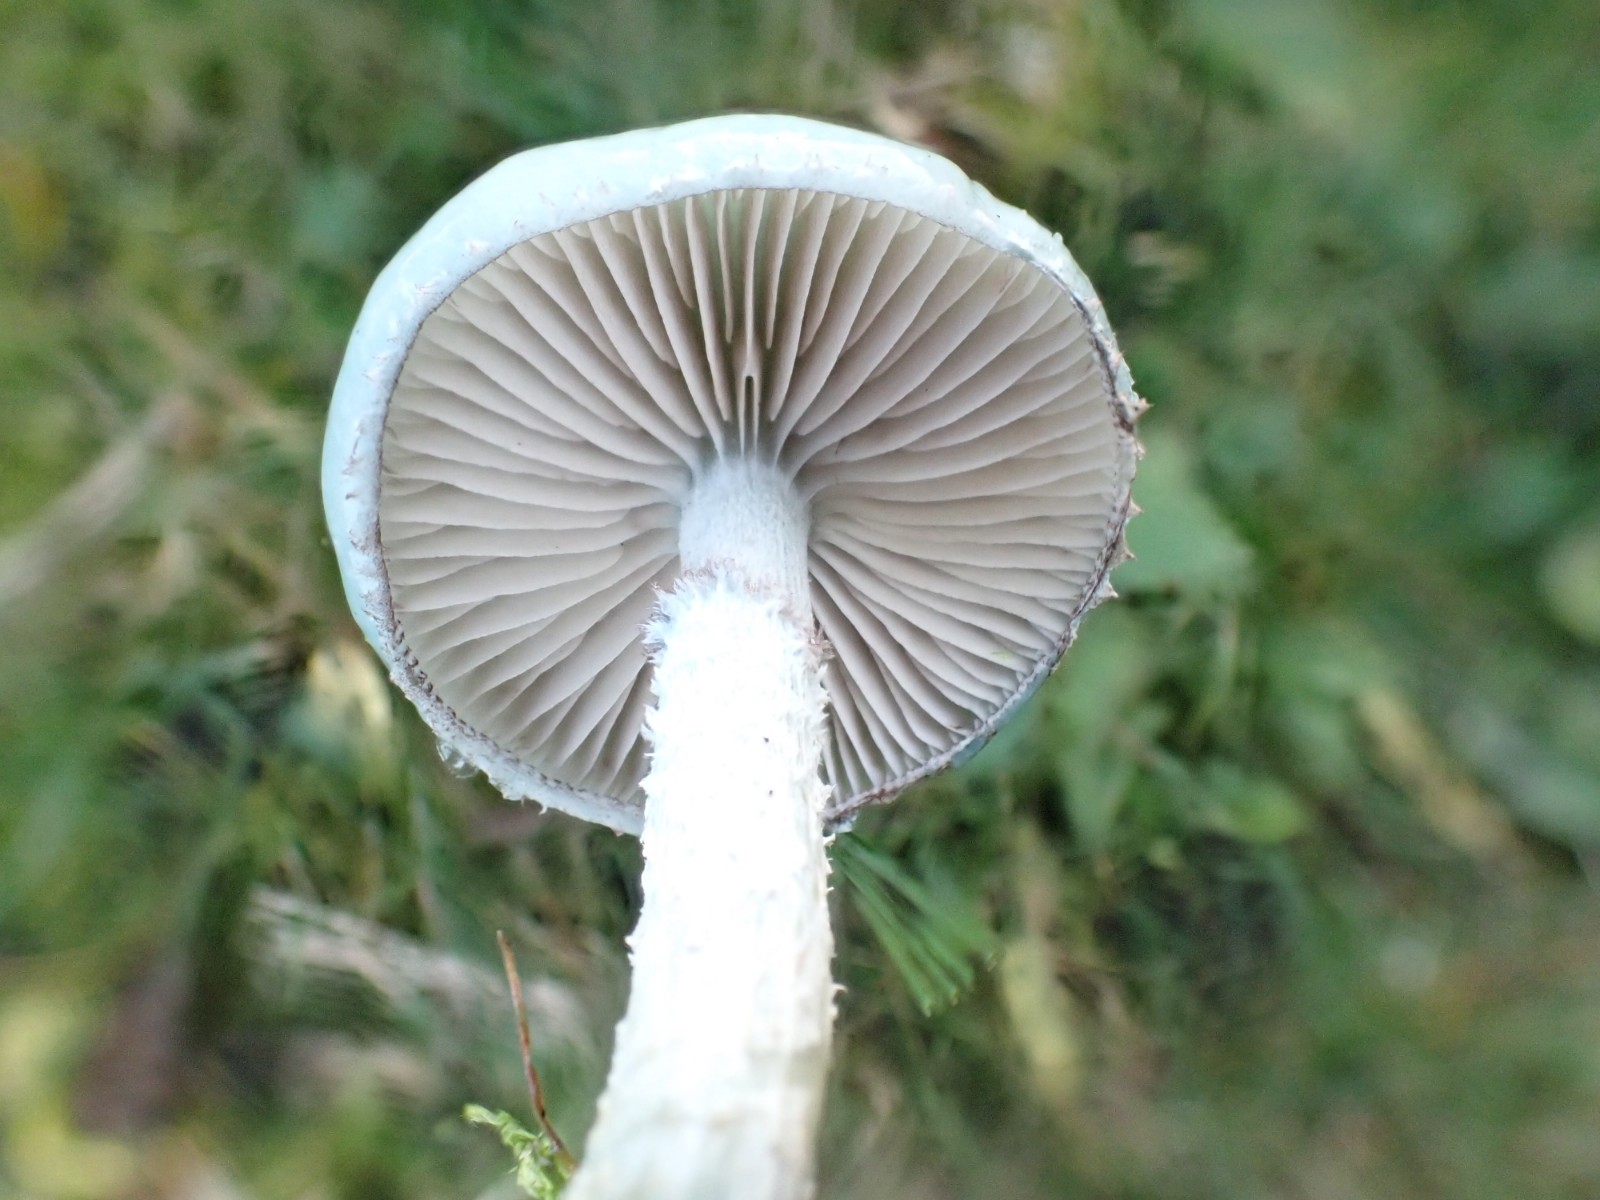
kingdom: Fungi
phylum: Basidiomycota
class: Agaricomycetes
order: Agaricales
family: Strophariaceae
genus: Stropharia
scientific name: Stropharia cyanea
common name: blågrøn bredblad
